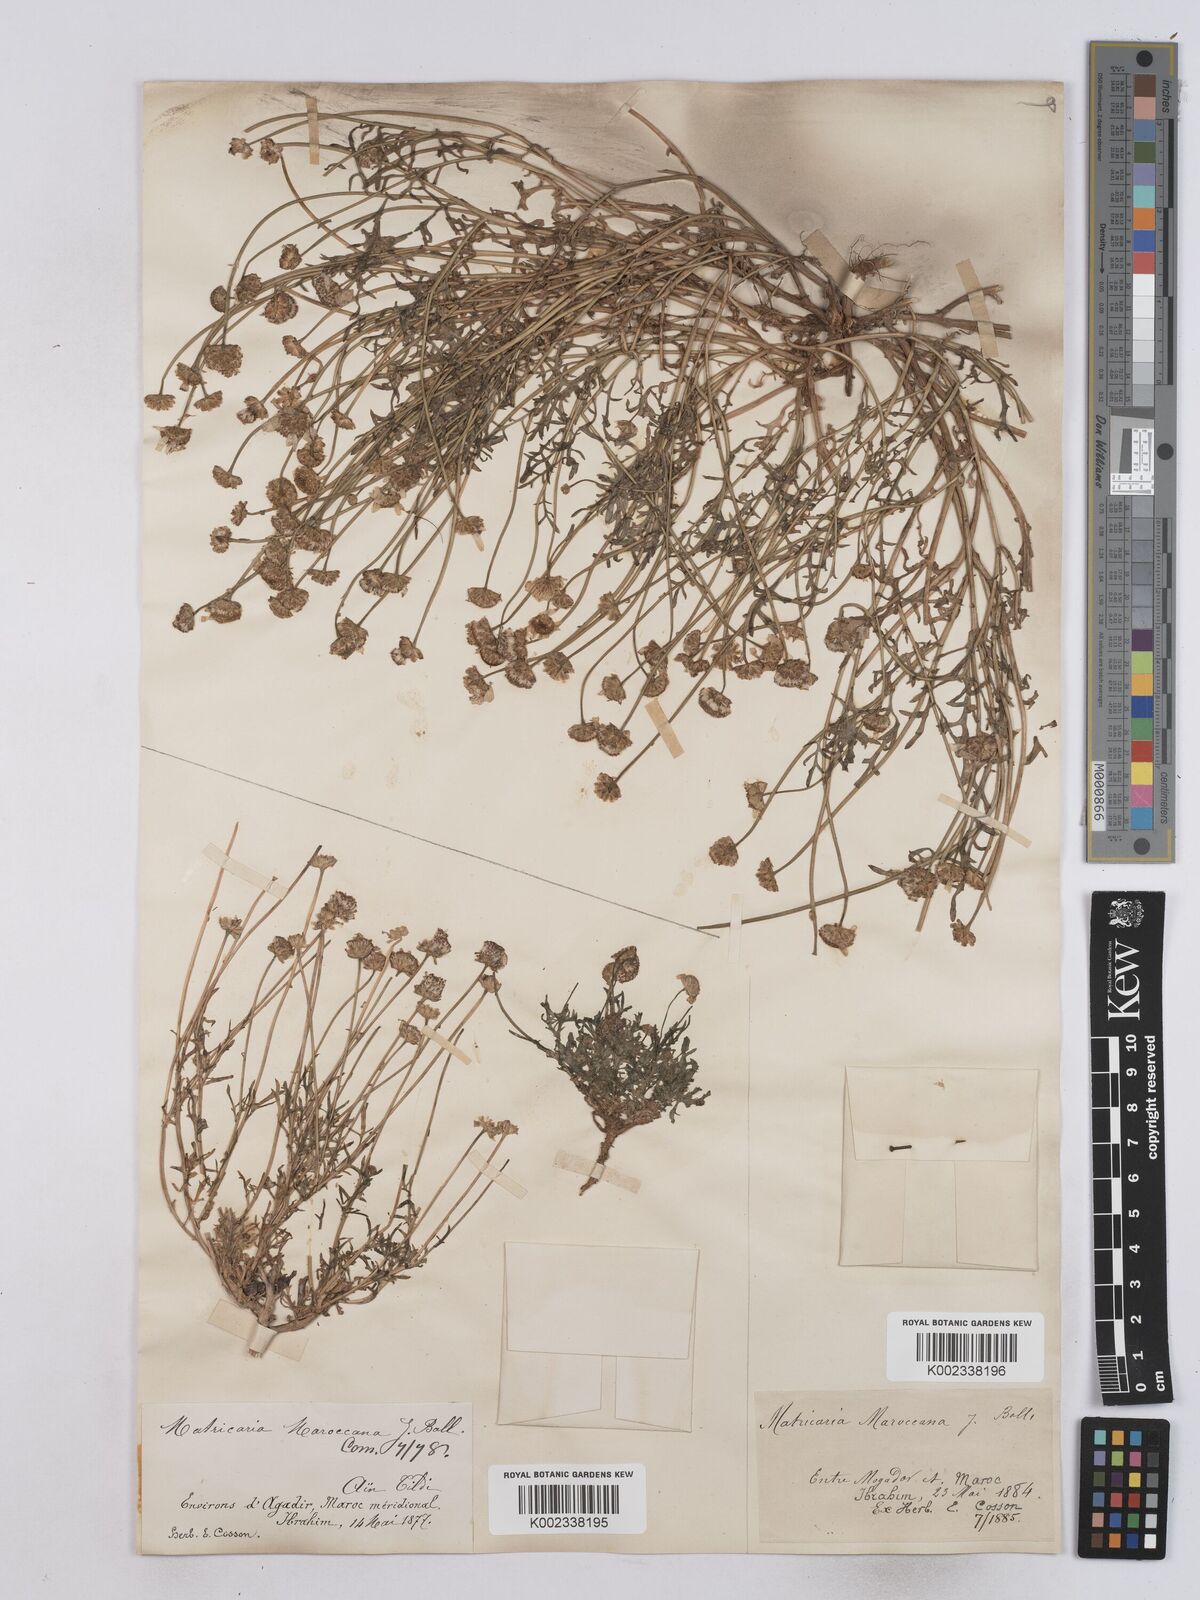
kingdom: Plantae
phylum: Tracheophyta
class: Magnoliopsida
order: Asterales
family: Asteraceae
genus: Otoglyphis
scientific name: Otoglyphis pubescens
